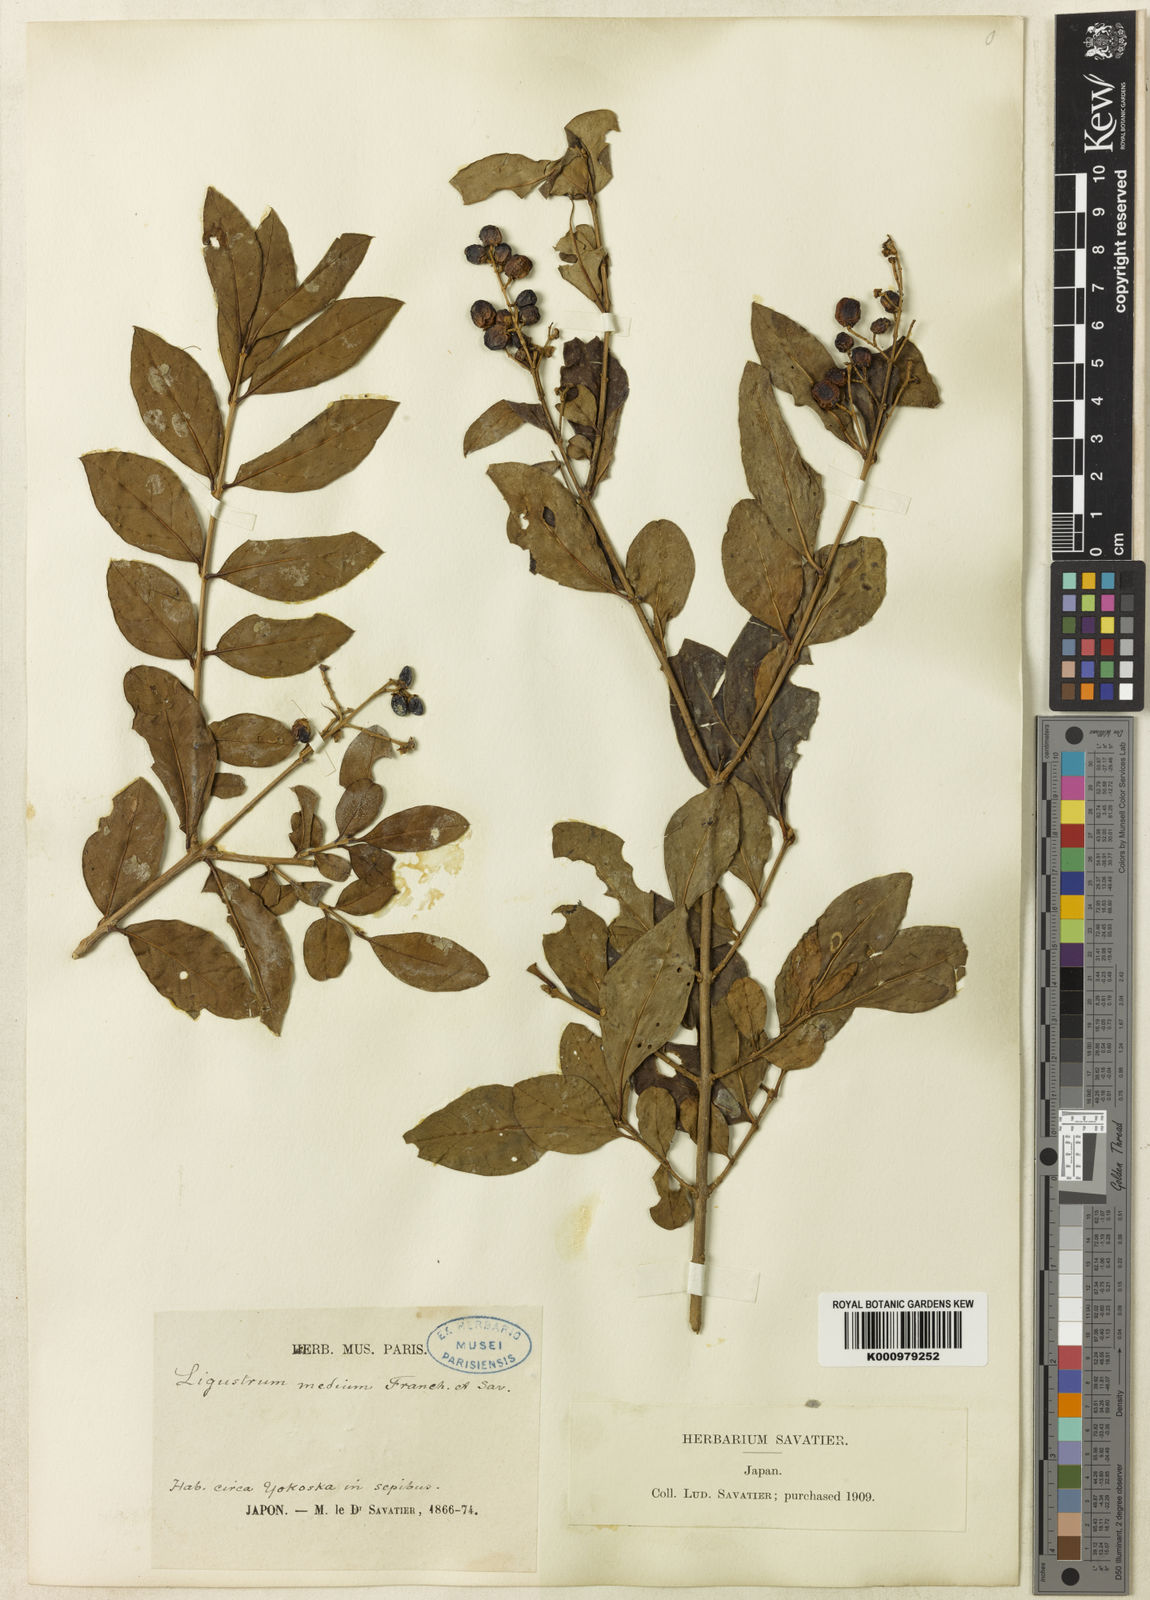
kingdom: Plantae
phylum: Tracheophyta
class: Magnoliopsida
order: Lamiales
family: Oleaceae
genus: Ligustrum
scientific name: Ligustrum ovalifolium
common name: California privet
